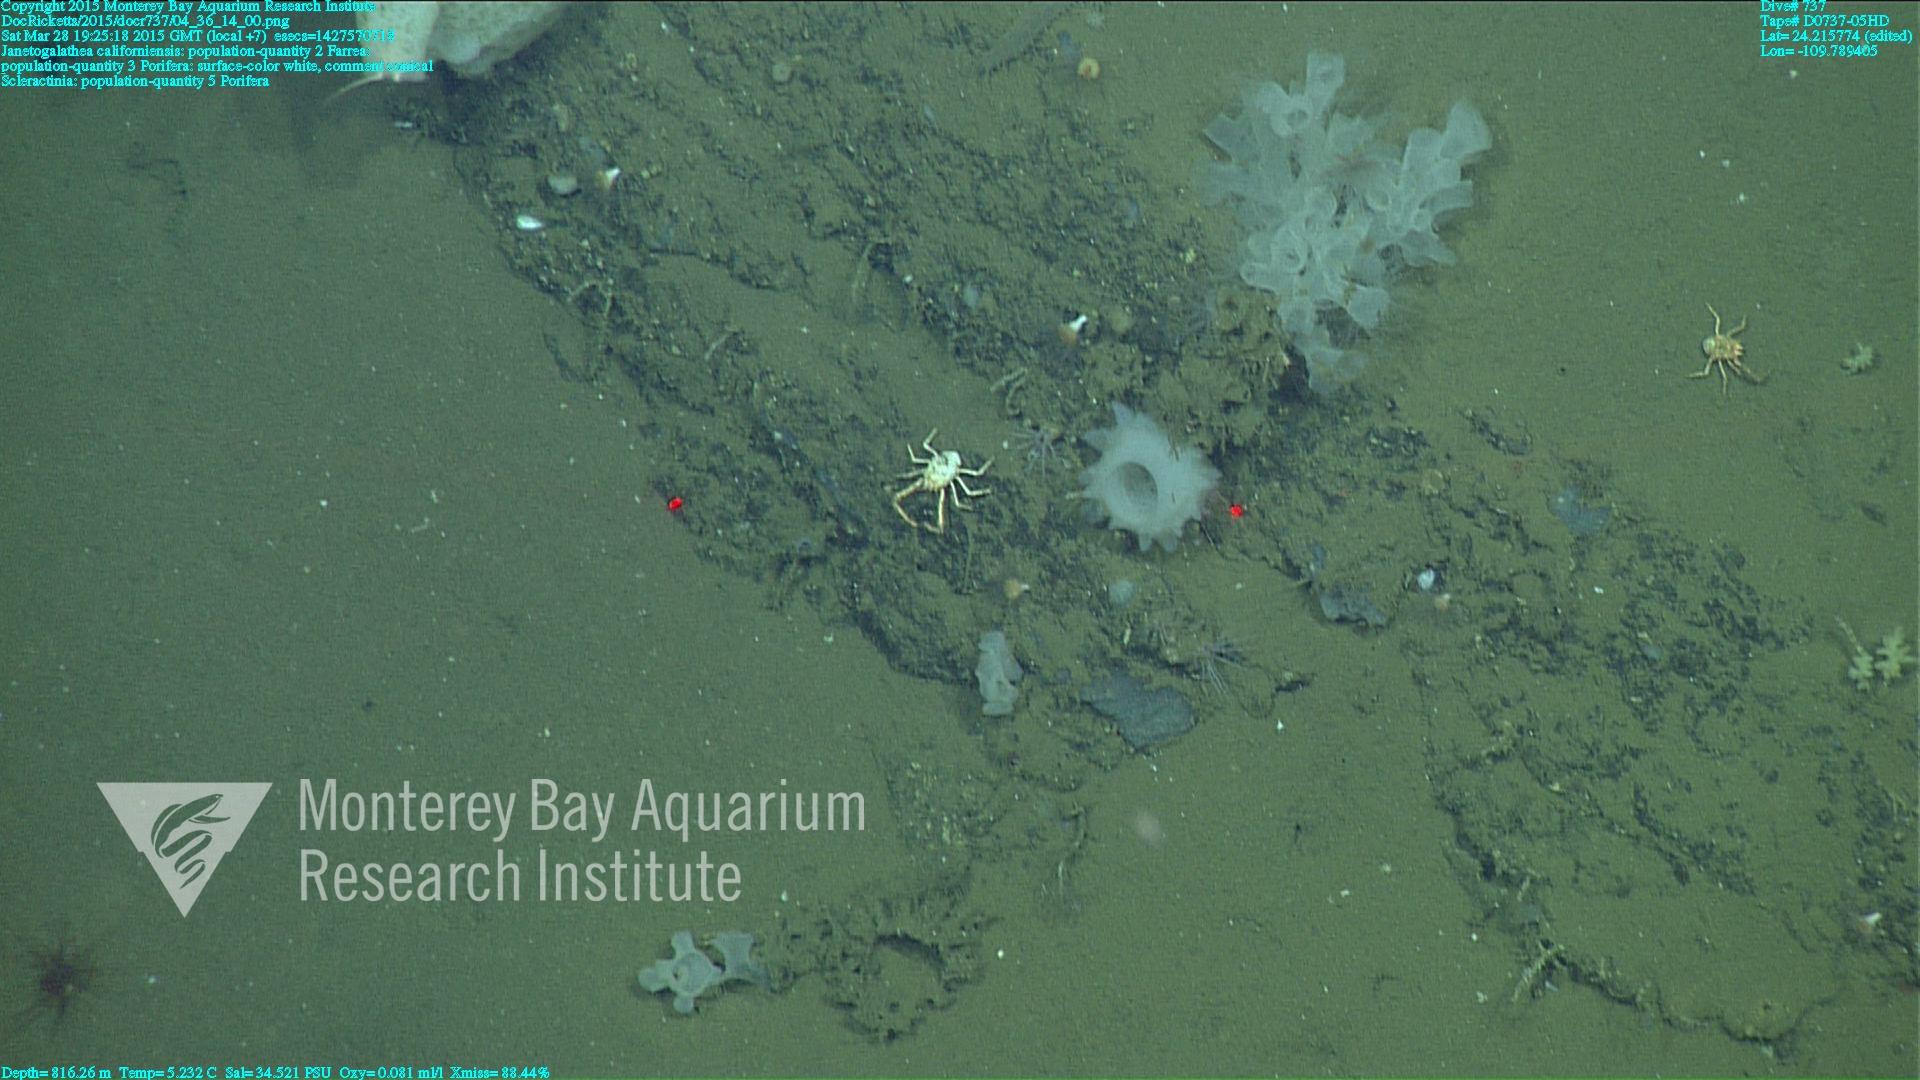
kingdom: Animalia
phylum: Cnidaria
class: Anthozoa
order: Scleractinia
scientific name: Scleractinia
